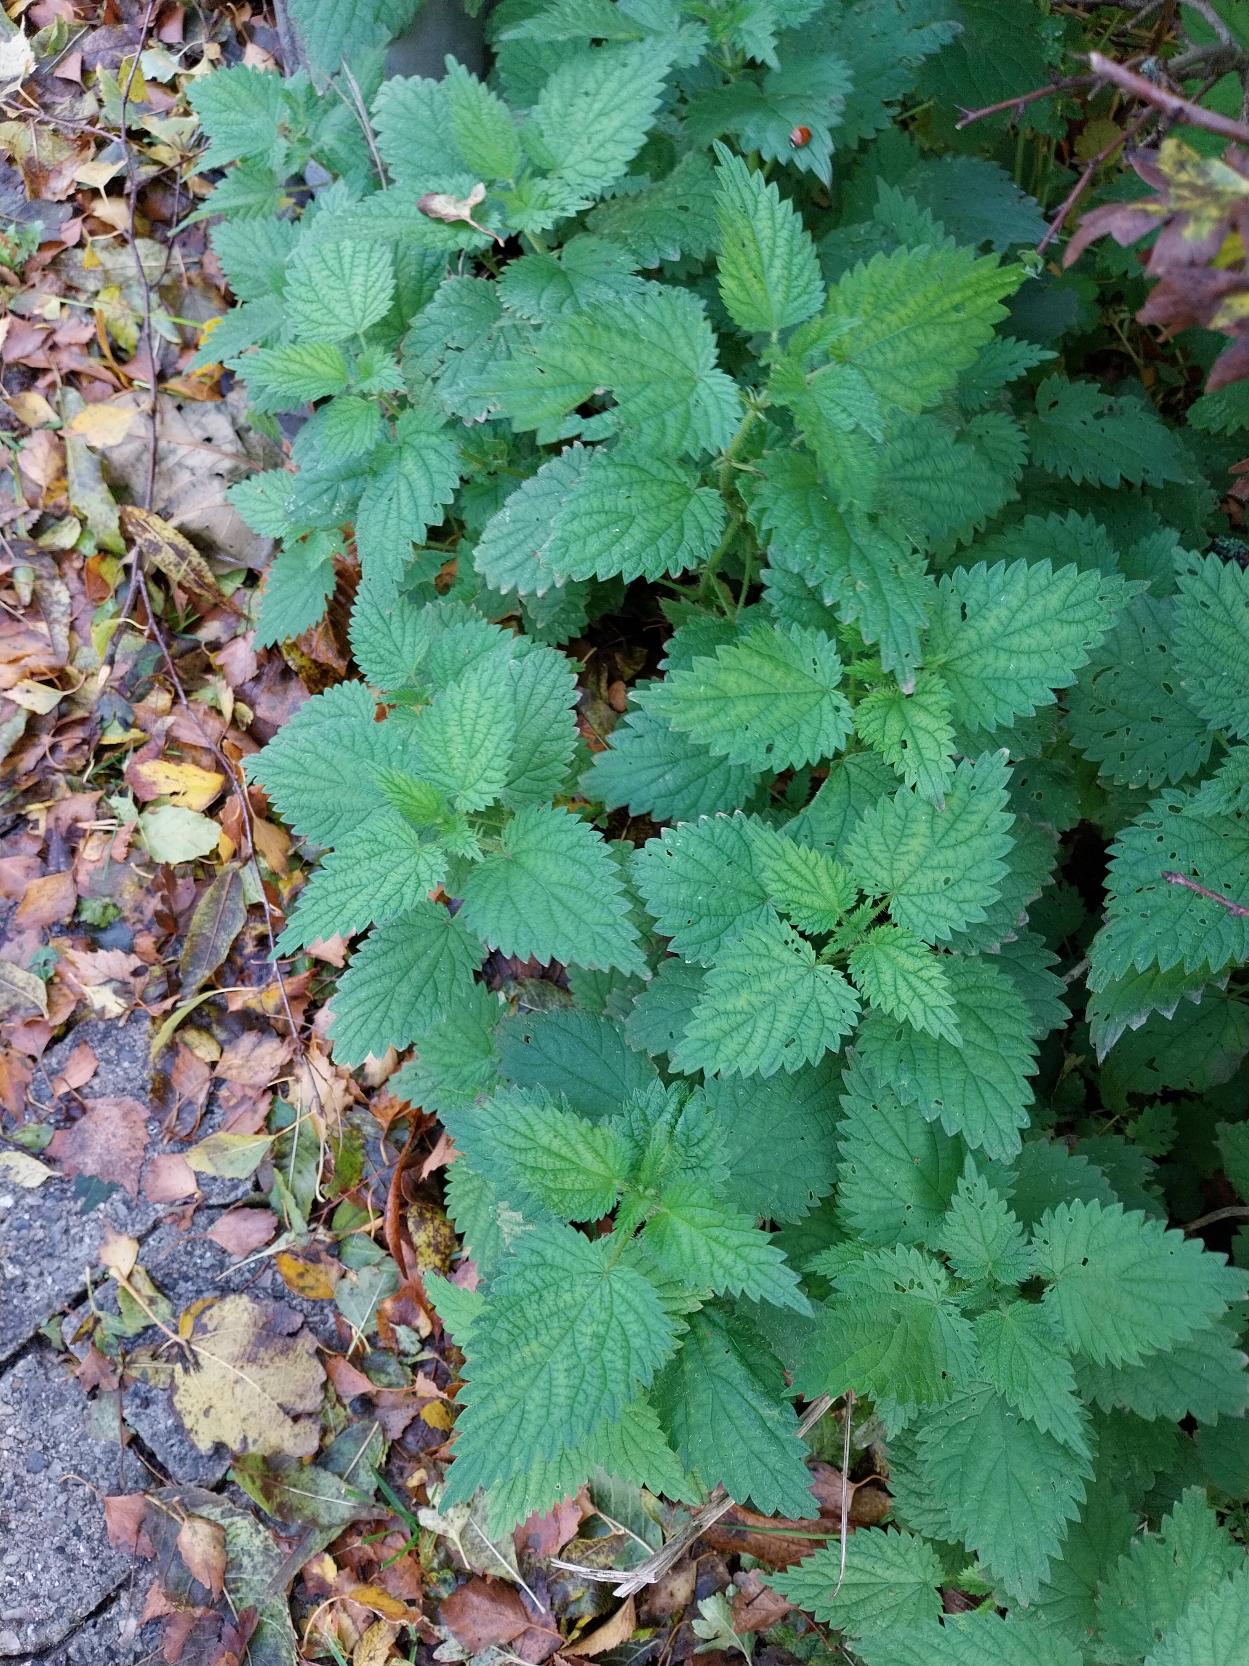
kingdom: Plantae
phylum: Tracheophyta
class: Magnoliopsida
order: Rosales
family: Urticaceae
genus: Urtica
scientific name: Urtica dioica
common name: Stor nælde
